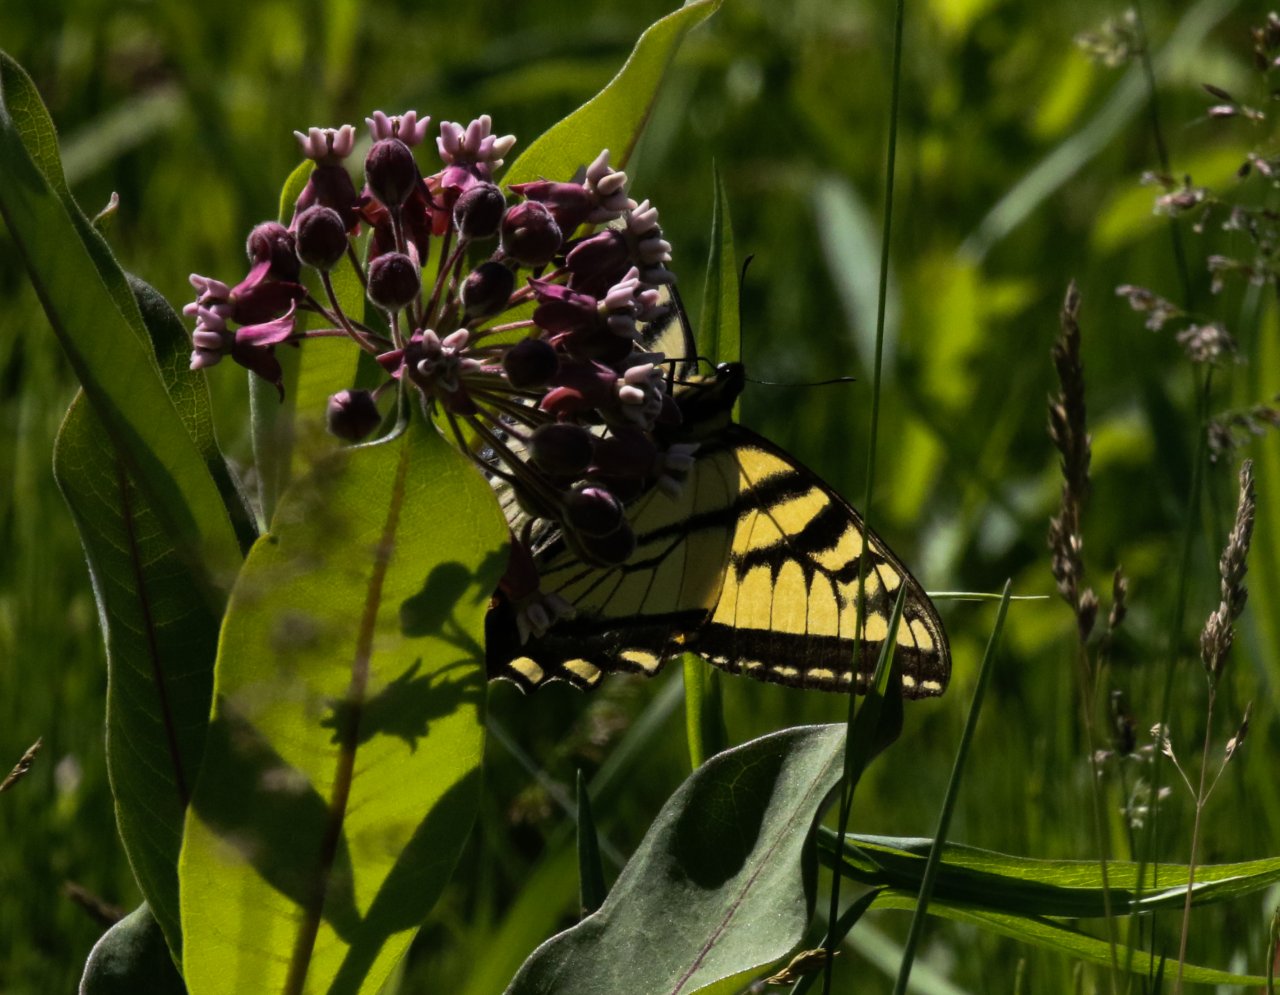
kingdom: Animalia
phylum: Arthropoda
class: Insecta
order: Lepidoptera
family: Papilionidae
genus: Pterourus
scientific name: Pterourus glaucus
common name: Eastern Tiger Swallowtail
